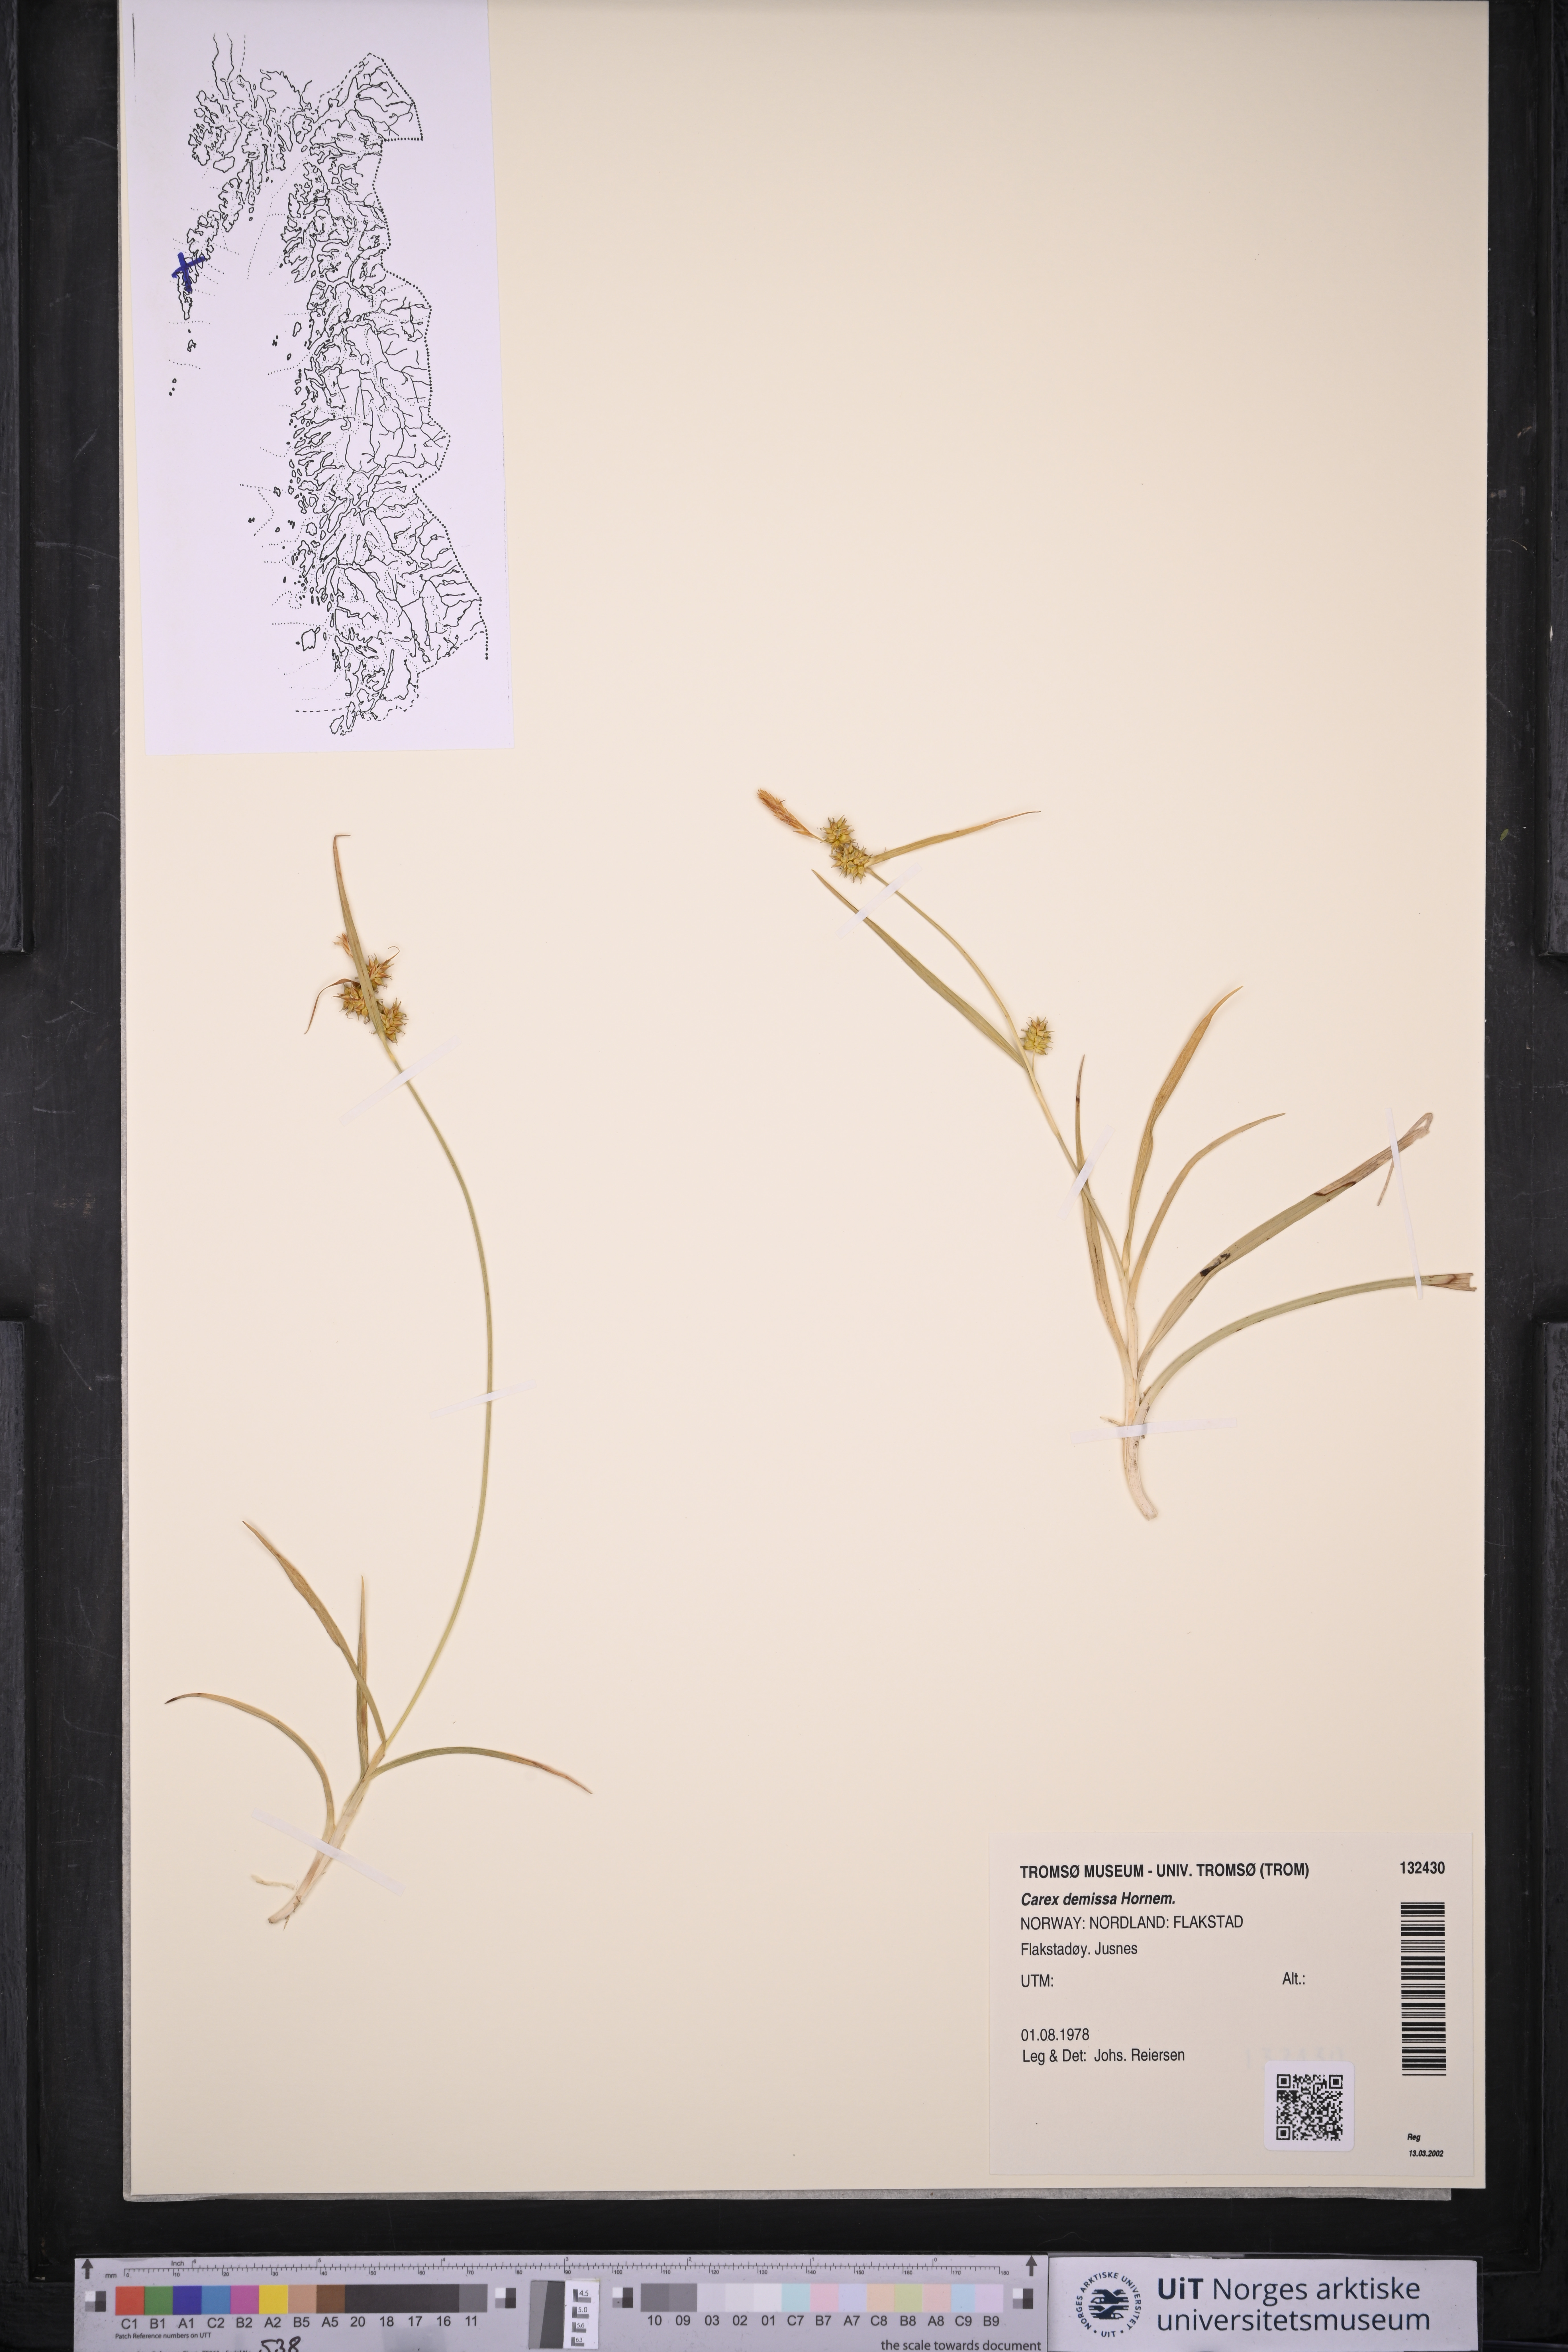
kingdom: Plantae
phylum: Tracheophyta
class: Liliopsida
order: Poales
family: Cyperaceae
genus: Carex
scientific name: Carex demissa
